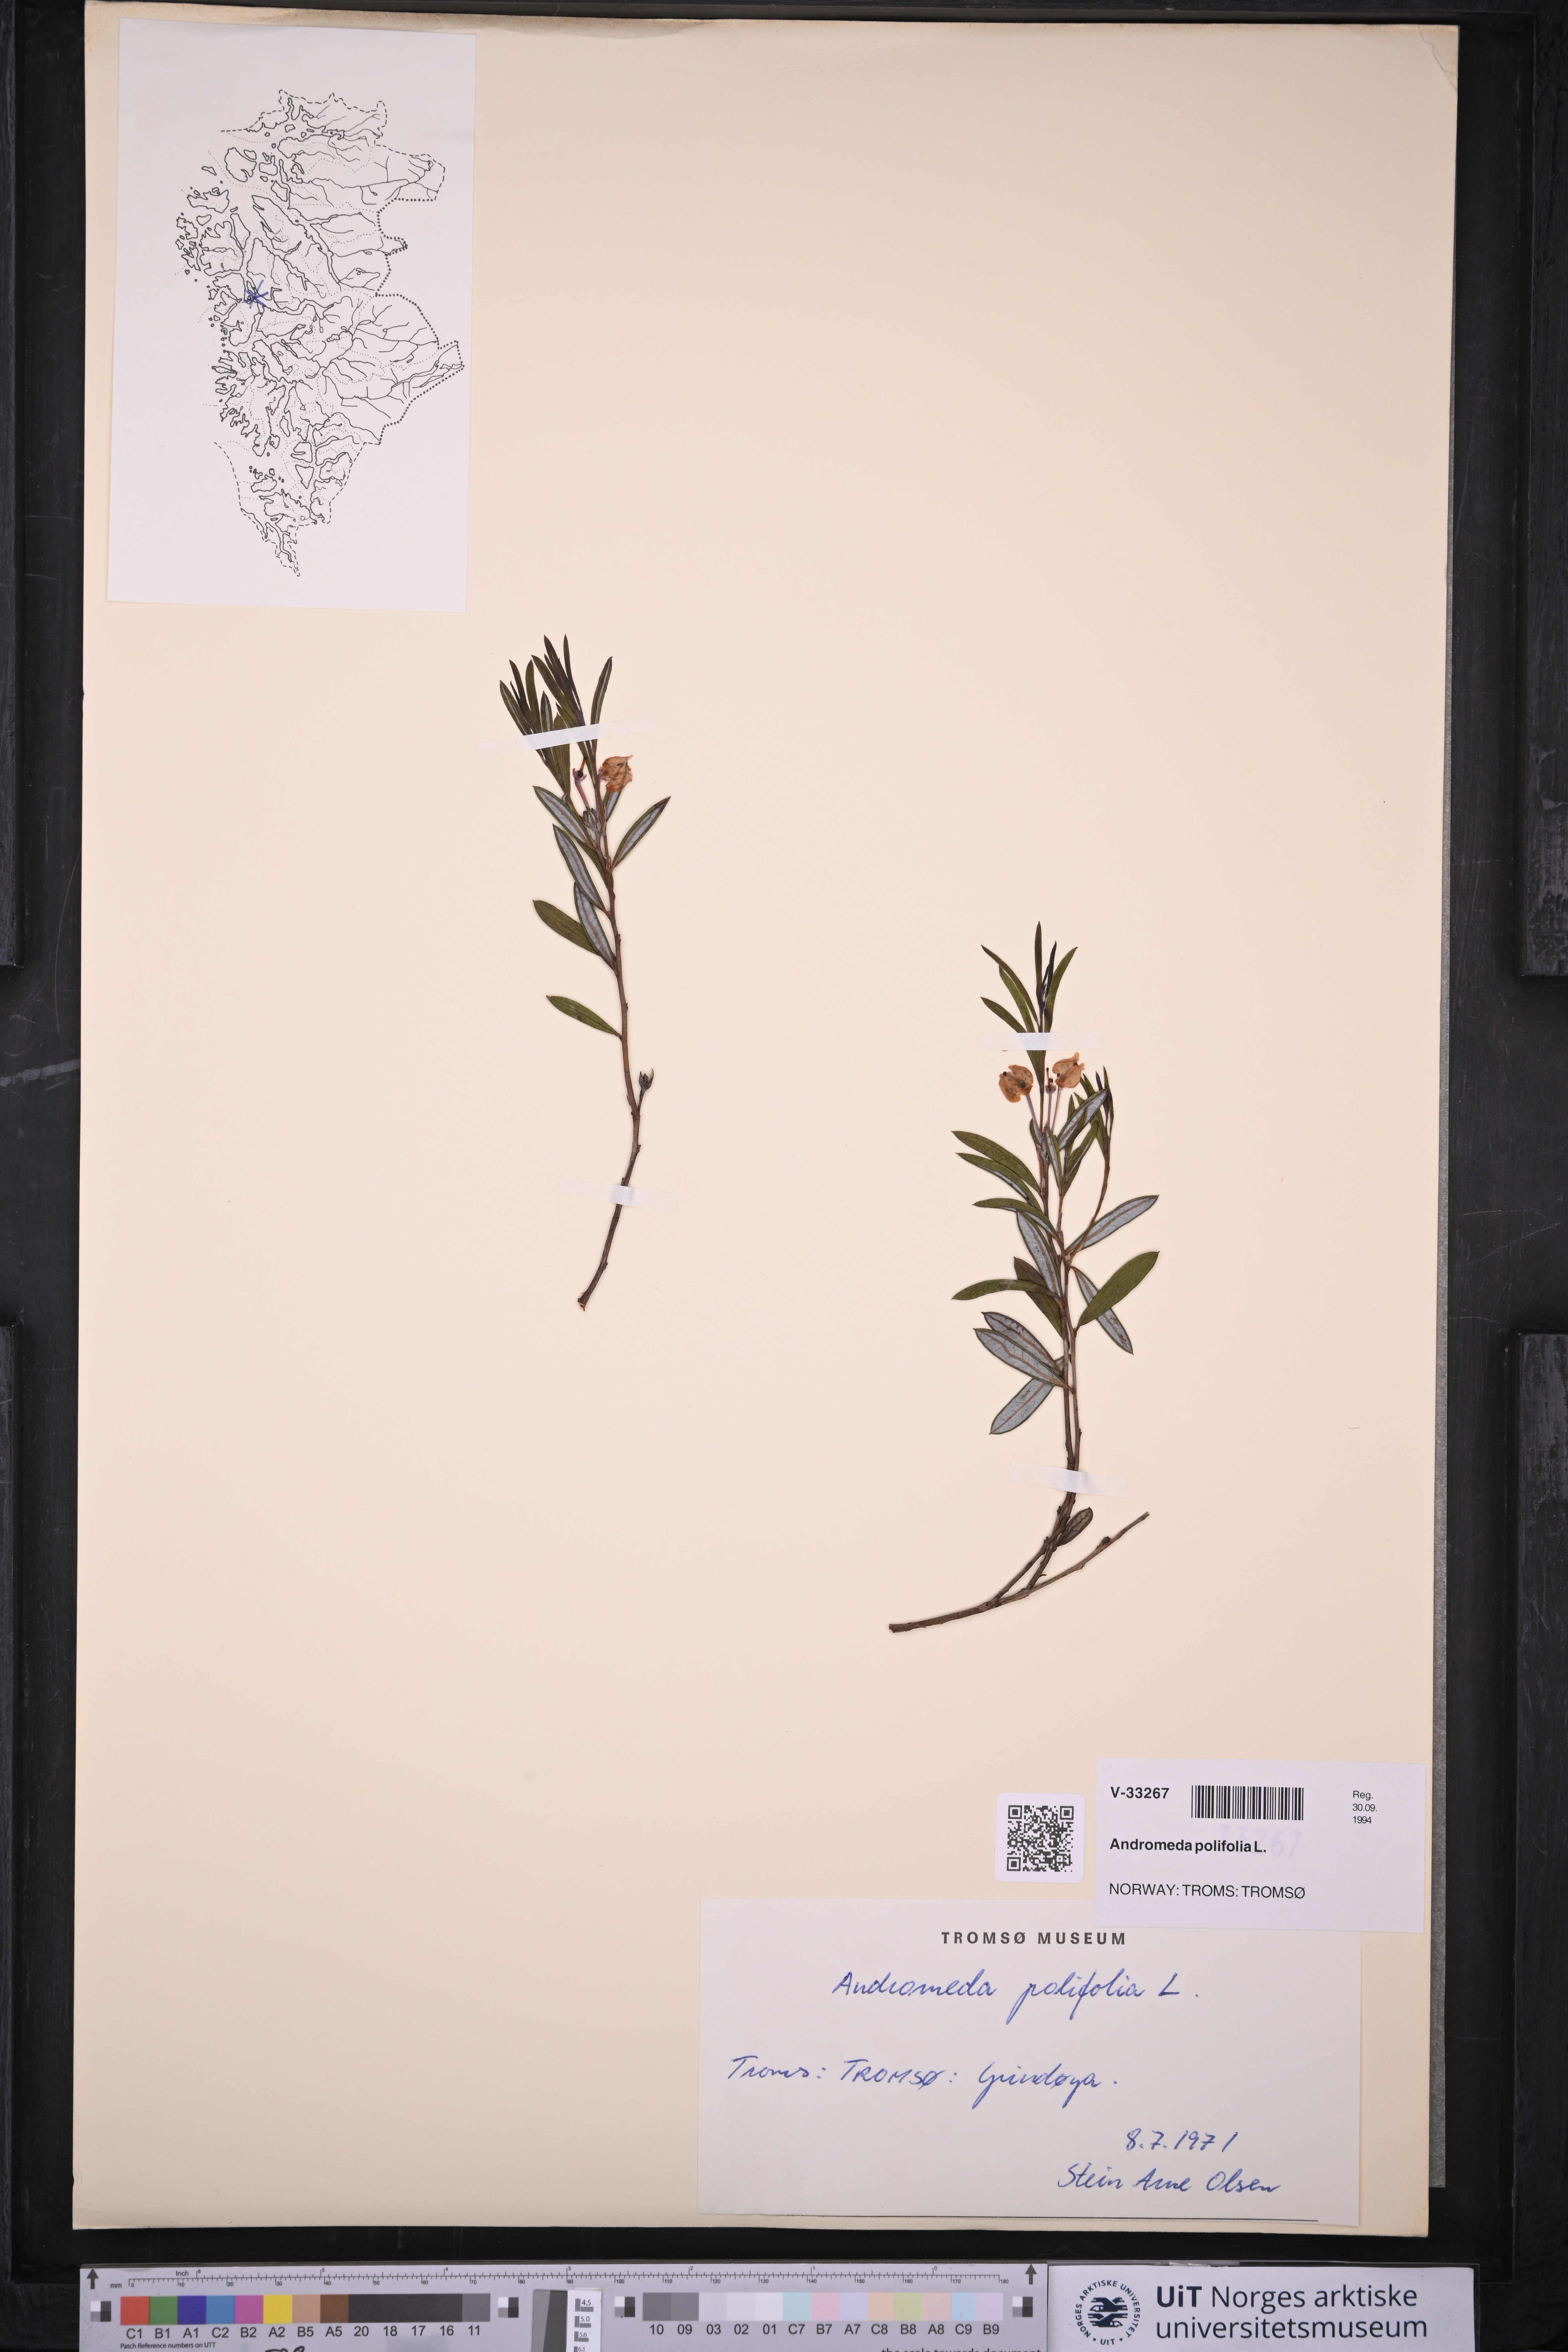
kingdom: Plantae
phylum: Tracheophyta
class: Magnoliopsida
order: Ericales
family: Ericaceae
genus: Andromeda
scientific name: Andromeda polifolia
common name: Bog-rosemary
